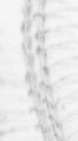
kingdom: Animalia
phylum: Arthropoda
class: Maxillopoda
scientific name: Maxillopoda
